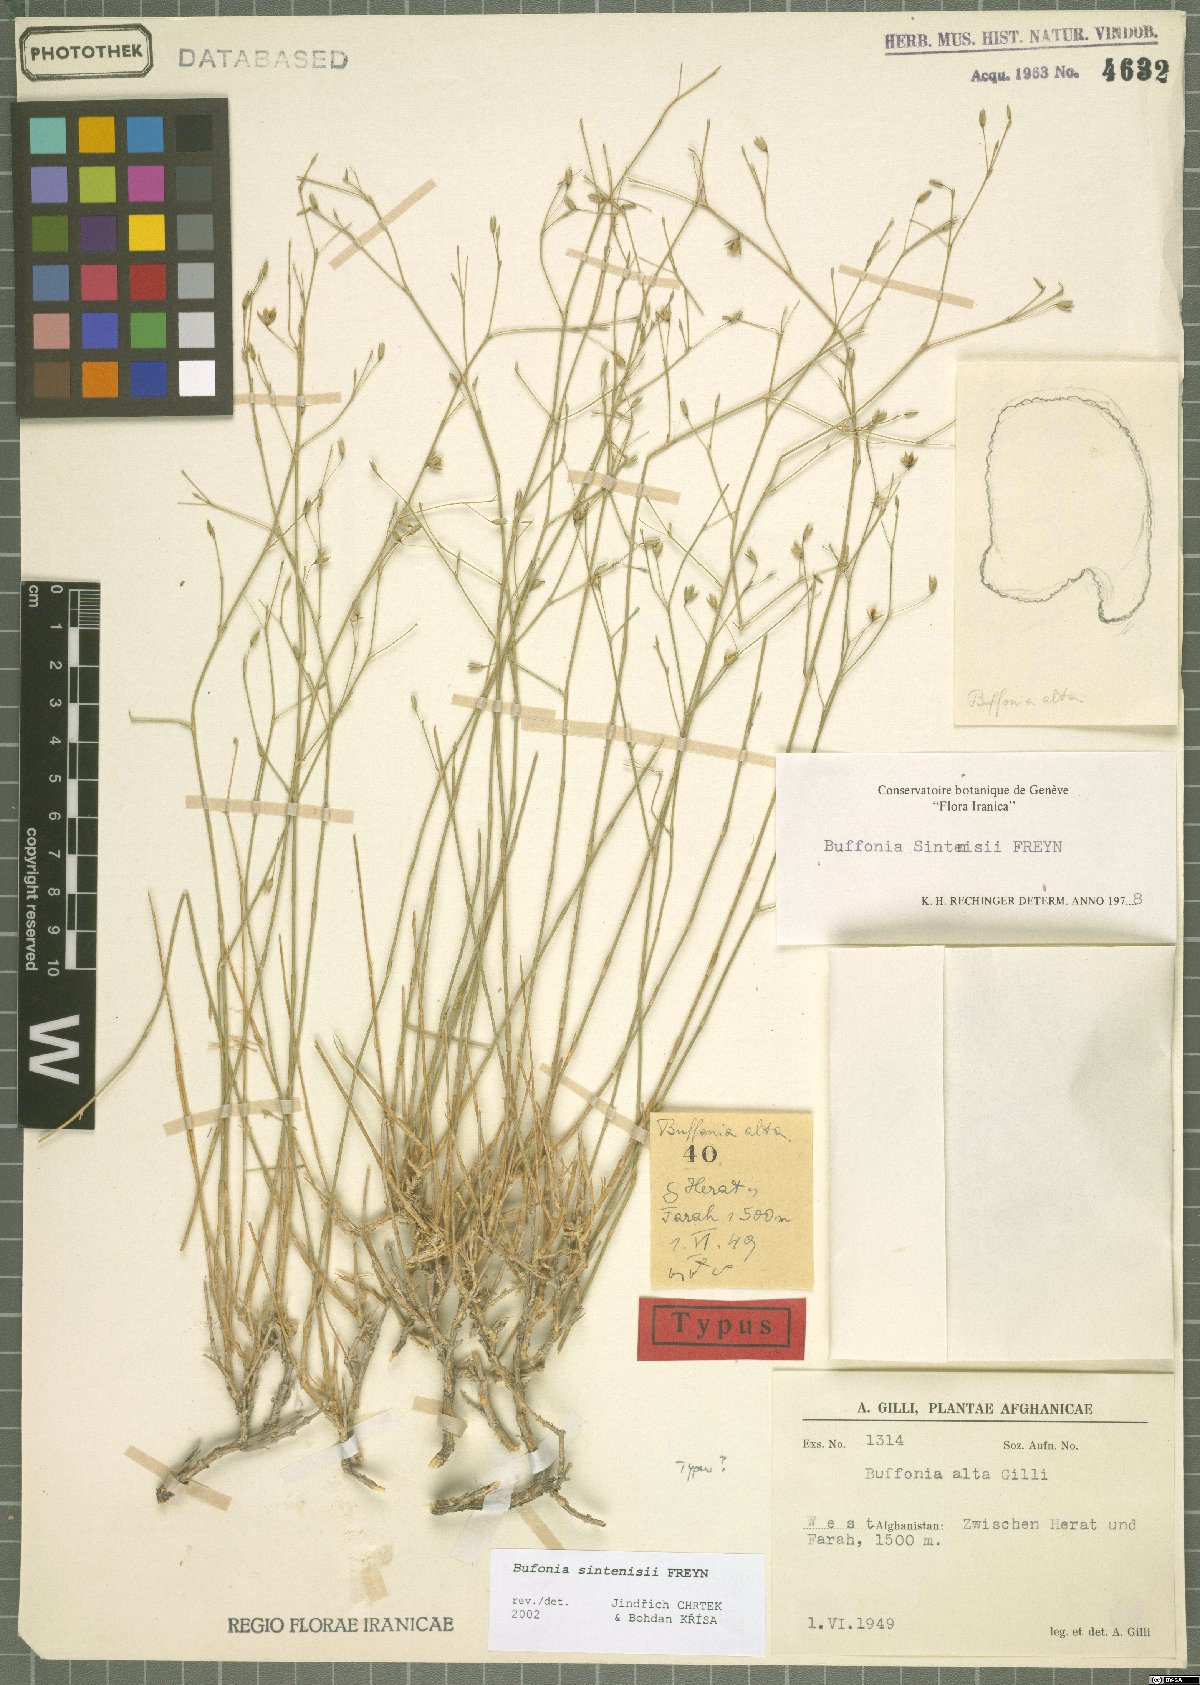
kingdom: Plantae
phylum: Tracheophyta
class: Magnoliopsida
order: Caryophyllales
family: Caryophyllaceae
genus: Bufonia
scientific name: Bufonia sintenisii
